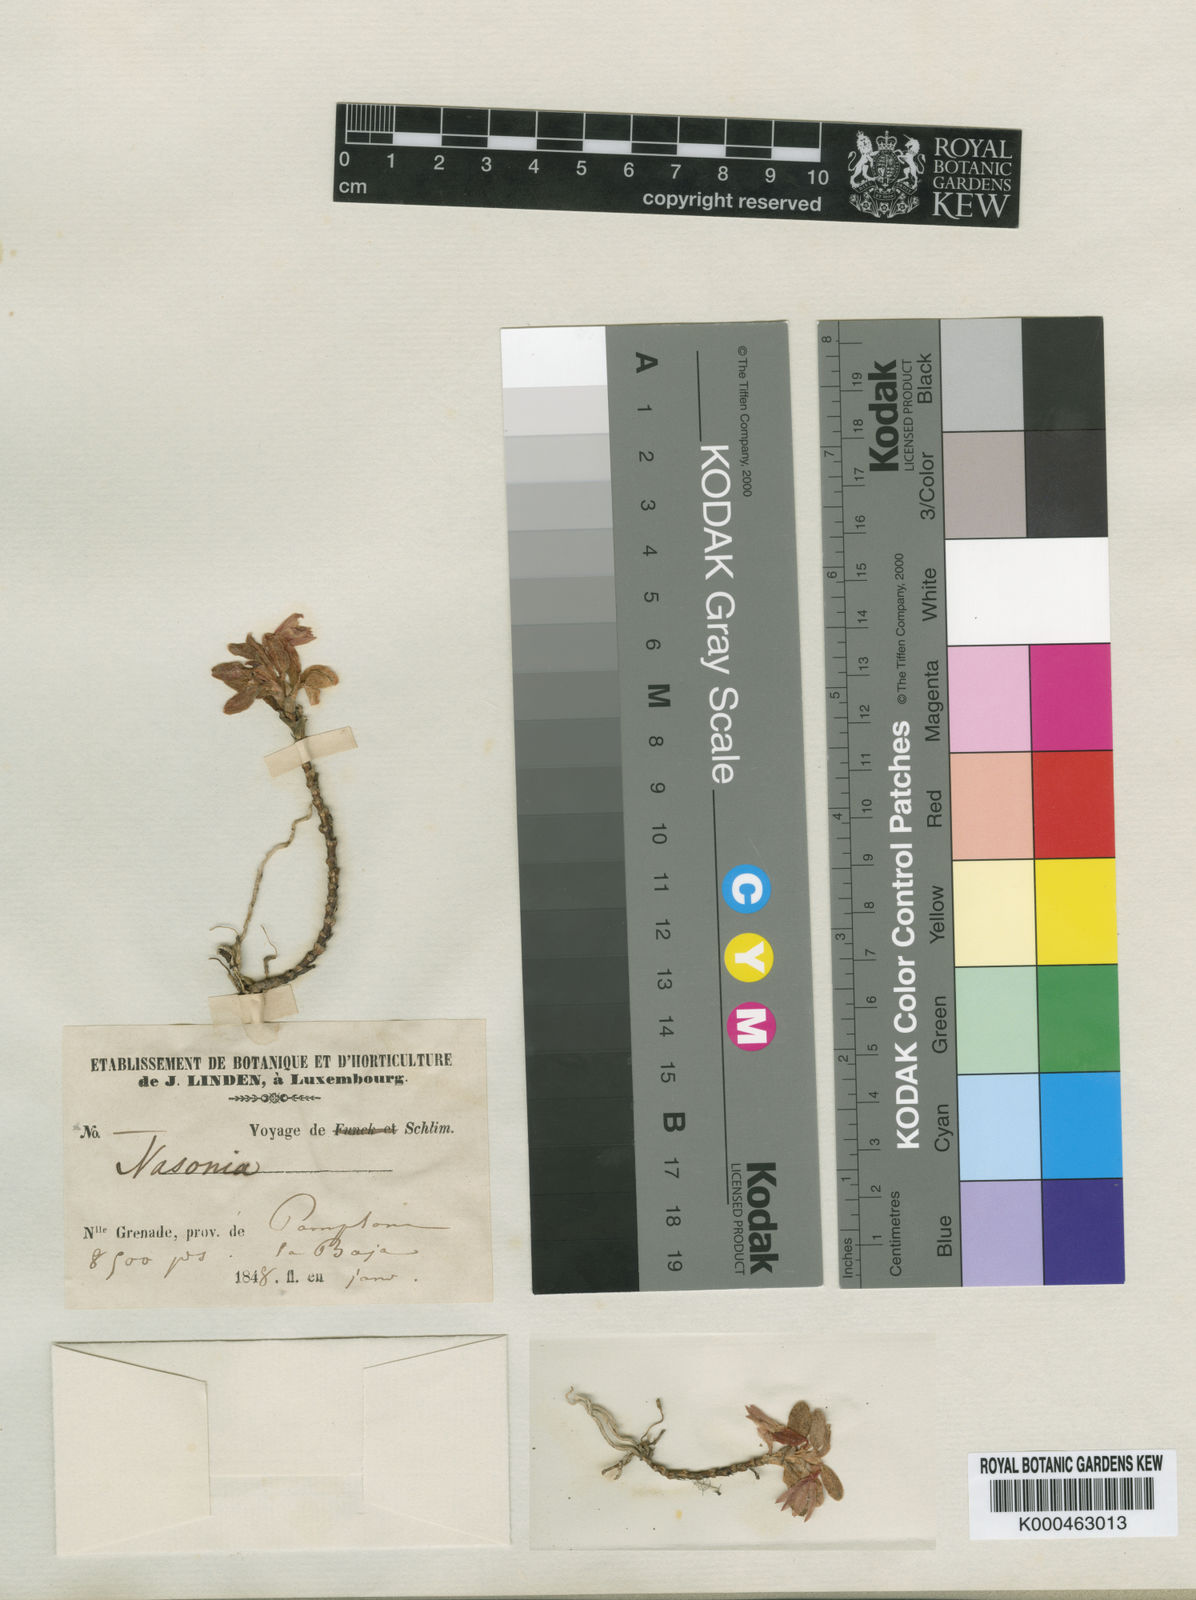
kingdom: Plantae
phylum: Tracheophyta
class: Liliopsida
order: Asparagales
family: Orchidaceae
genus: Fernandezia
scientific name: Fernandezia
